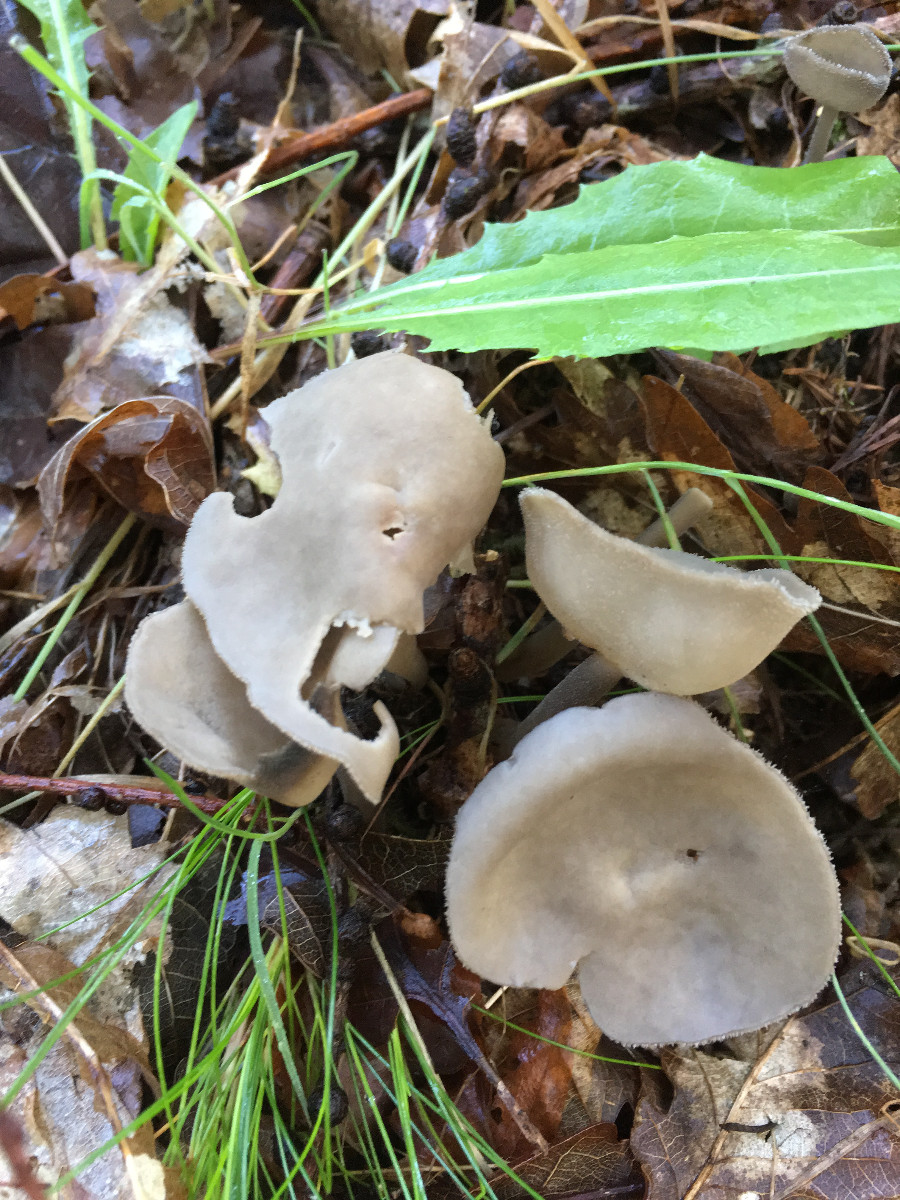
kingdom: Fungi
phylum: Ascomycota
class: Pezizomycetes
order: Pezizales
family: Helvellaceae
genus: Helvella
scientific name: Helvella
